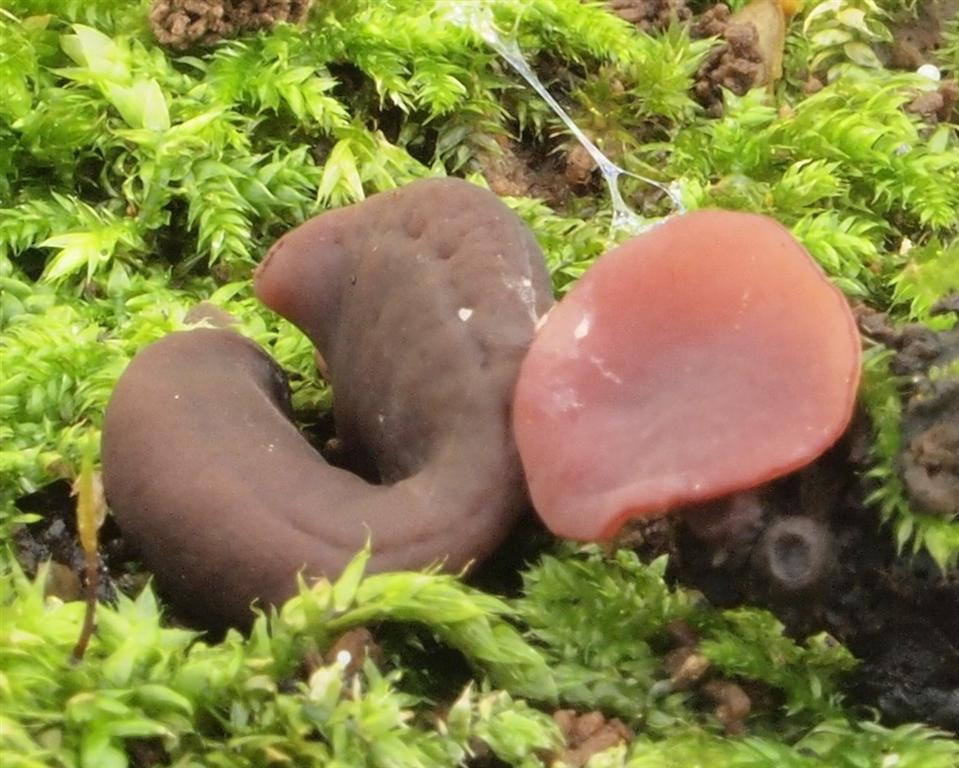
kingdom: Fungi
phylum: Ascomycota
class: Leotiomycetes
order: Helotiales
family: Gelatinodiscaceae
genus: Ascocoryne
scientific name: Ascocoryne cylichnium
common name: stor sejskive
